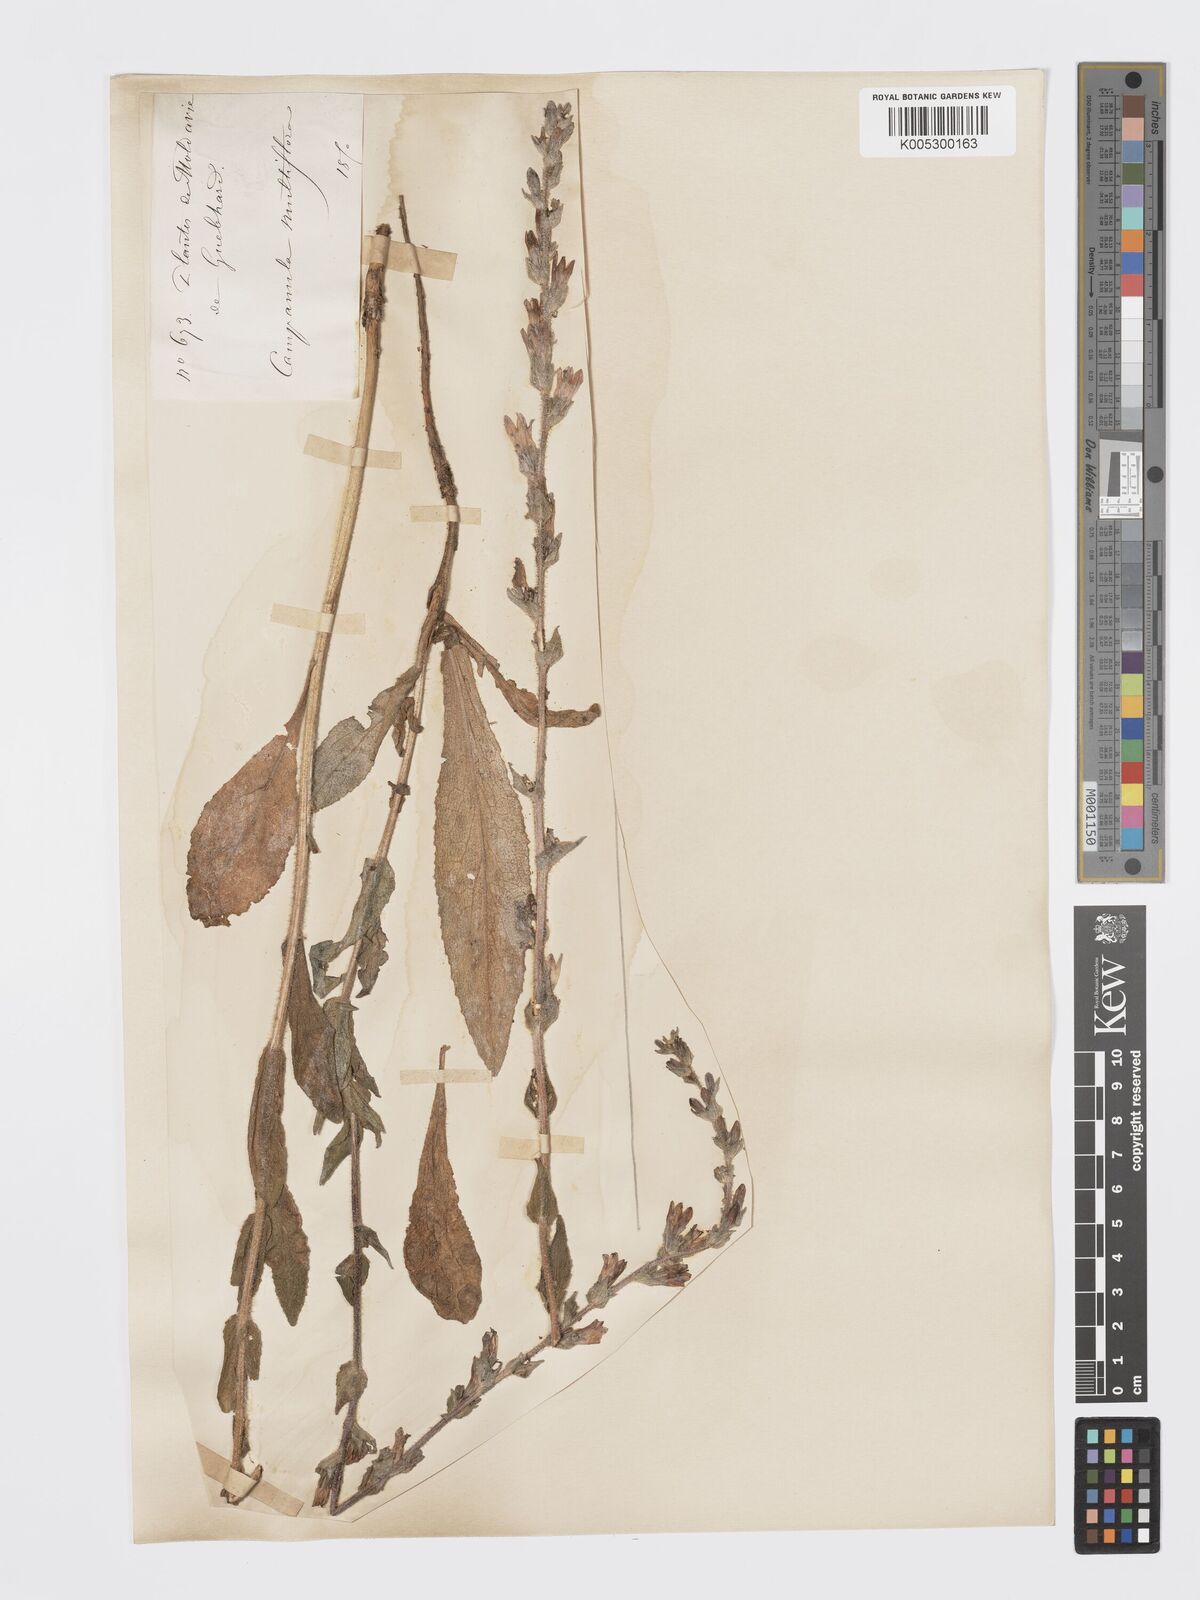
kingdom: Plantae
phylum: Tracheophyta
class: Magnoliopsida
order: Asterales
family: Campanulaceae
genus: Campanula
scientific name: Campanula macrostachya
